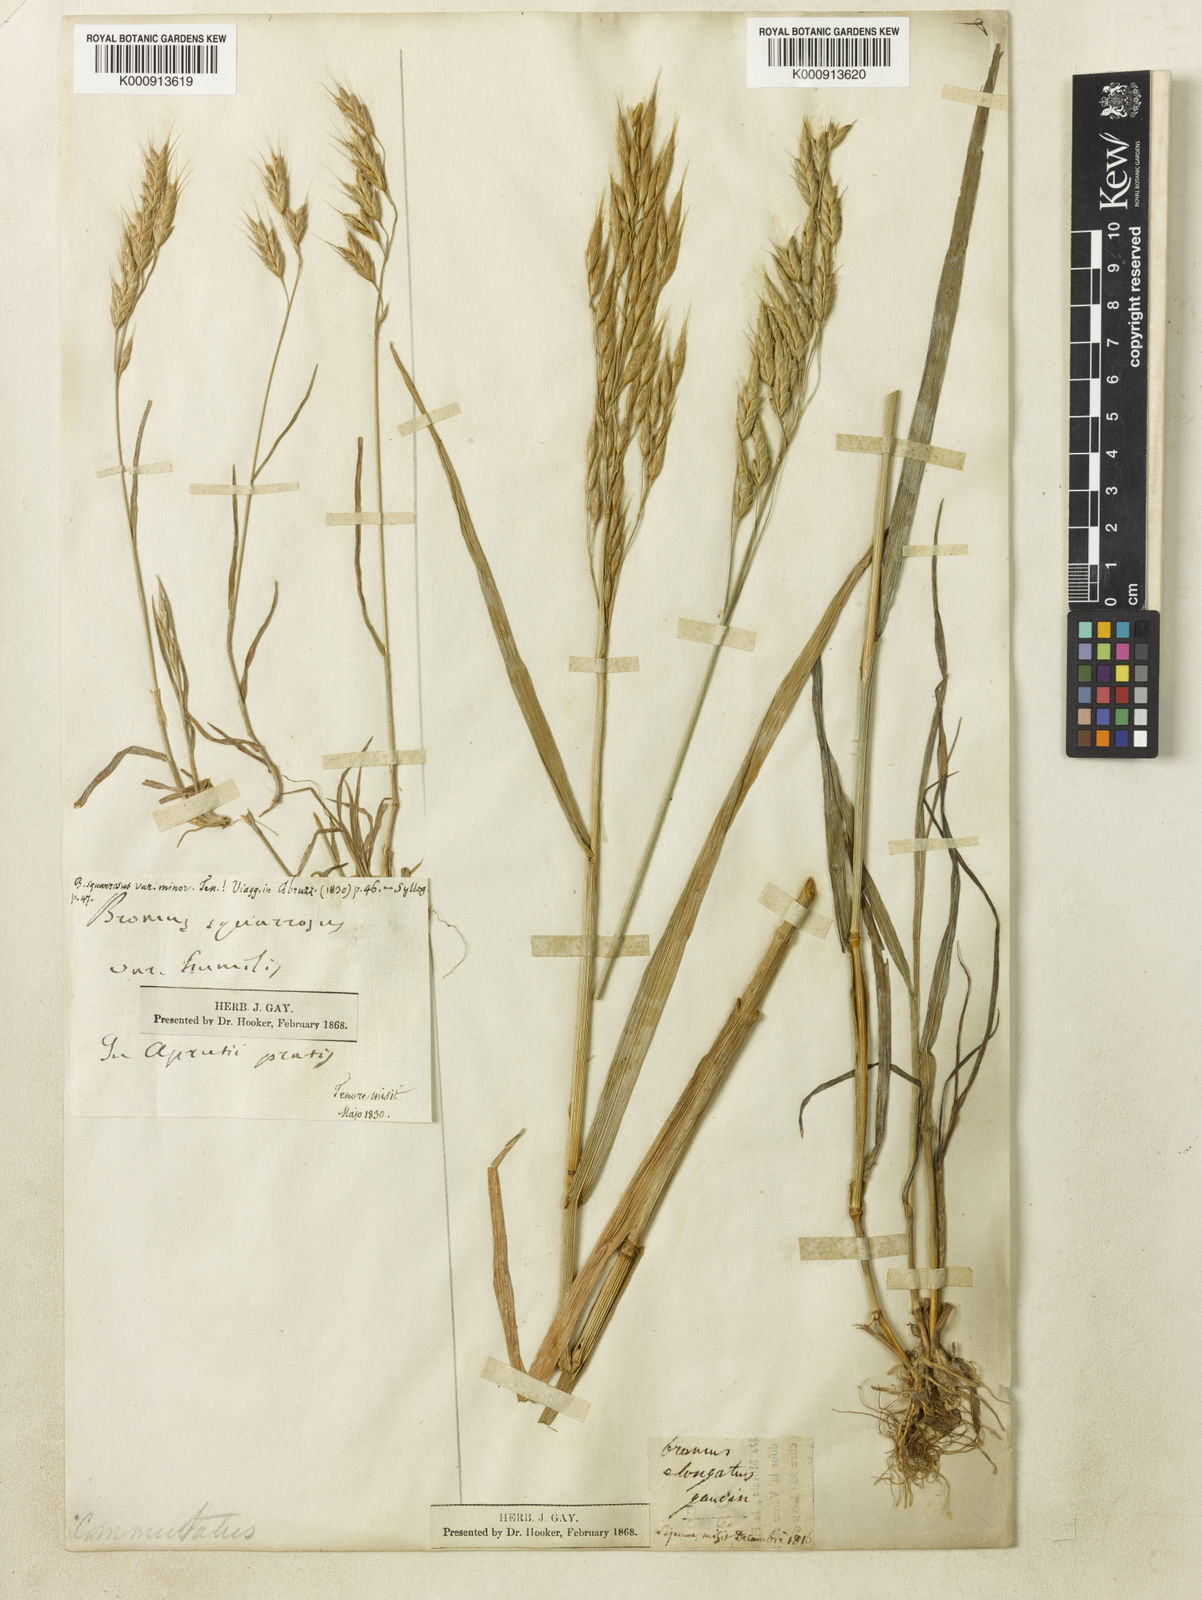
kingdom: Plantae
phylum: Tracheophyta
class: Liliopsida
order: Poales
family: Poaceae
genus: Bromus
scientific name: Bromus commutatus
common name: Meadow brome
